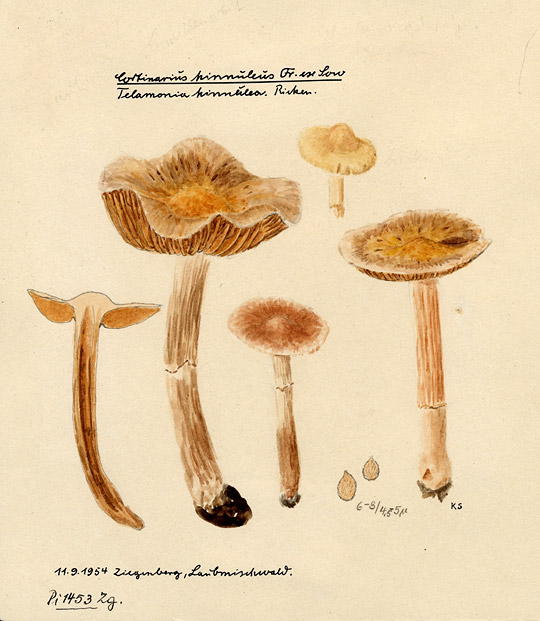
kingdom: Fungi
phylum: Basidiomycota
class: Agaricomycetes
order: Agaricales
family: Cortinariaceae
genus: Cortinarius
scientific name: Cortinarius hinnuleus
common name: Earthy webcap
